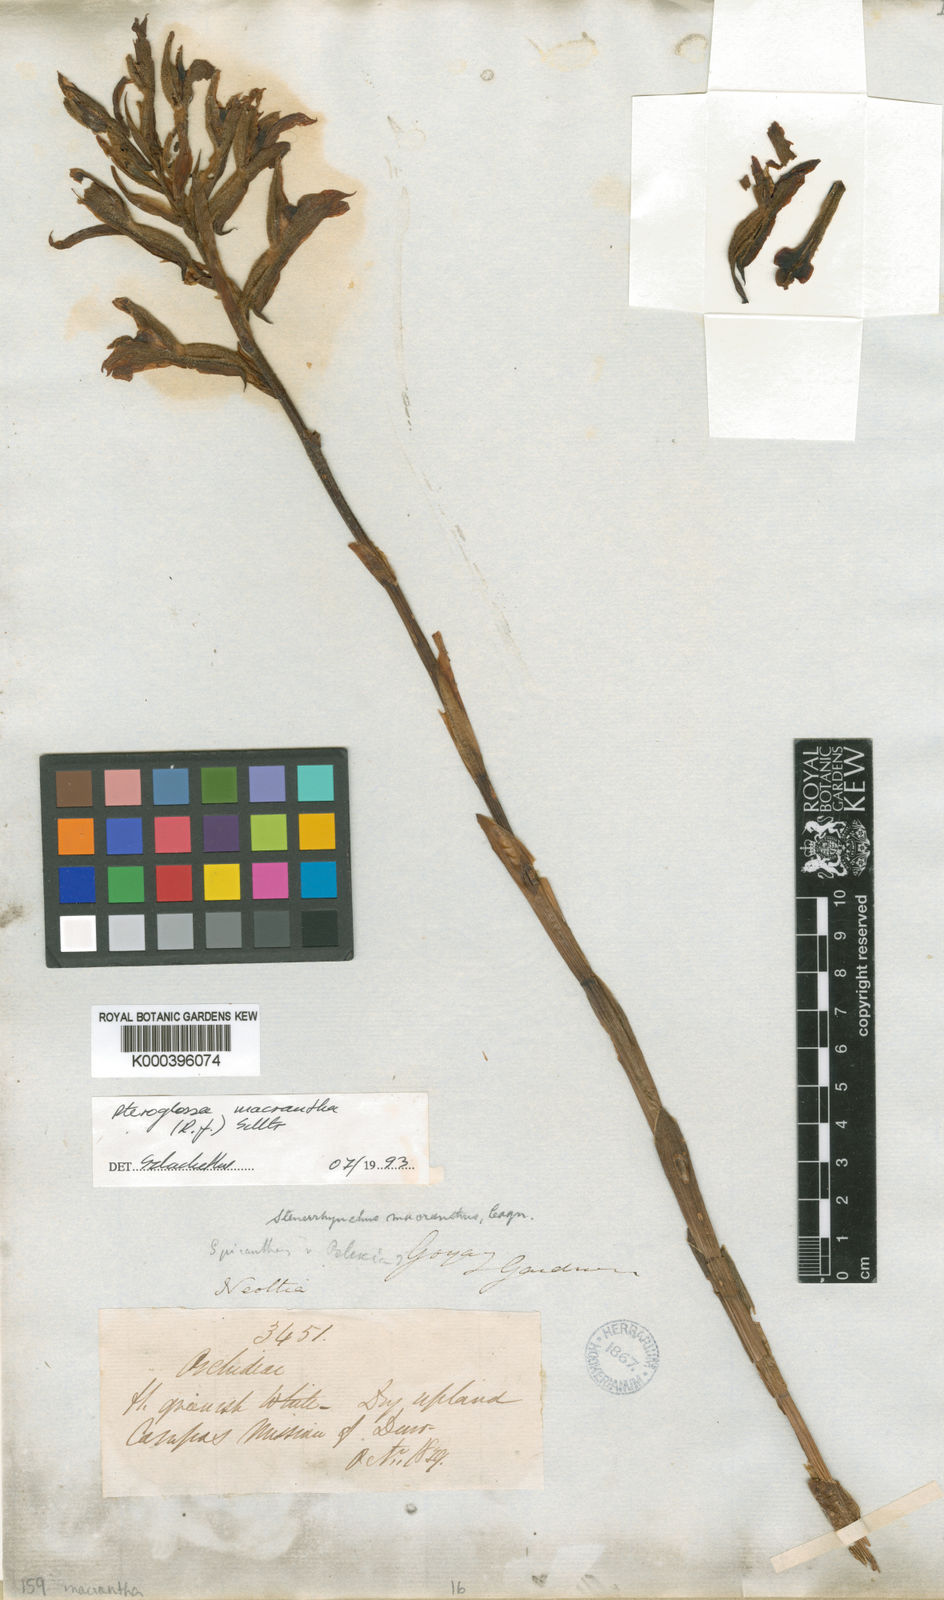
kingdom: Plantae
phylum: Tracheophyta
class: Liliopsida
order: Asparagales
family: Orchidaceae
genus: Pteroglossa
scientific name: Pteroglossa macrantha
